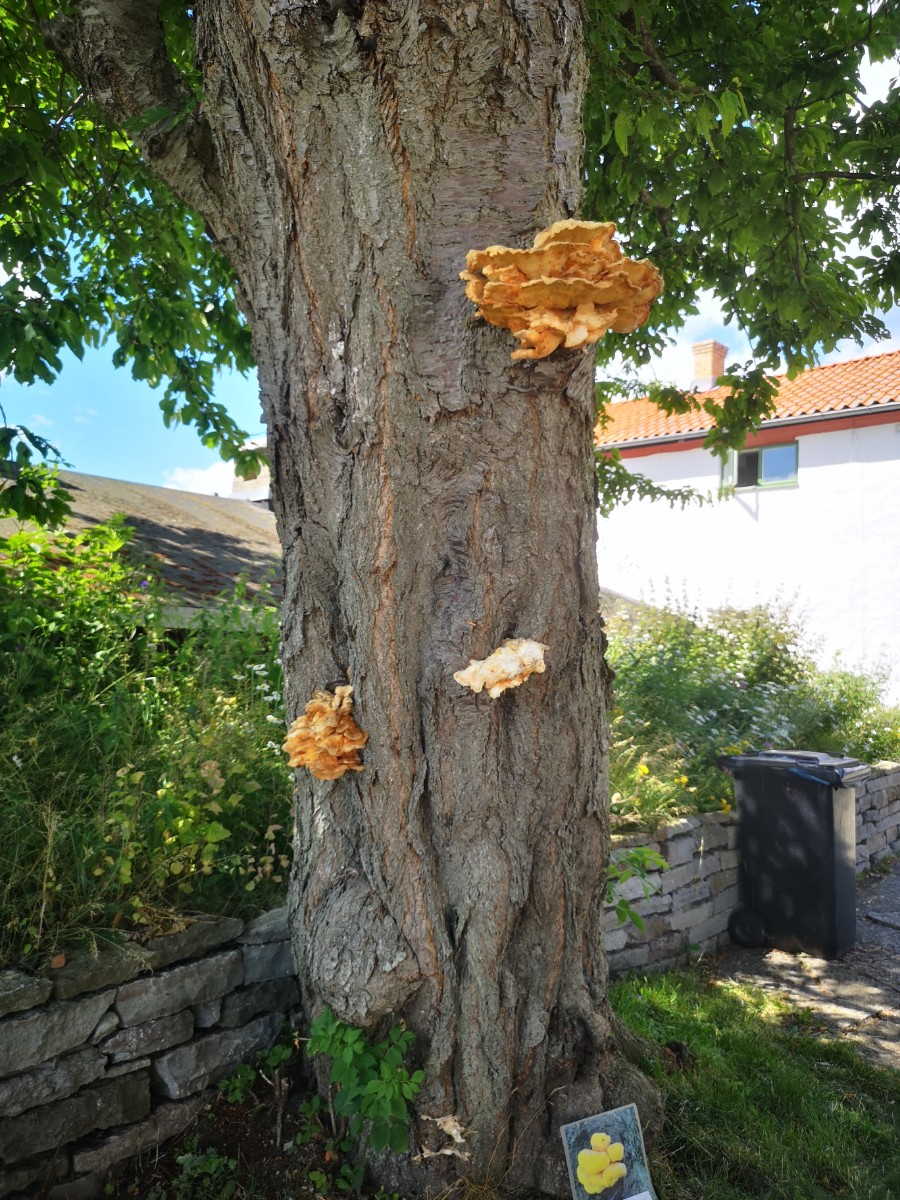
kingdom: Fungi
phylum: Basidiomycota
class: Agaricomycetes
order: Polyporales
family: Laetiporaceae
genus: Laetiporus
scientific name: Laetiporus sulphureus
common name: svovlporesvamp
